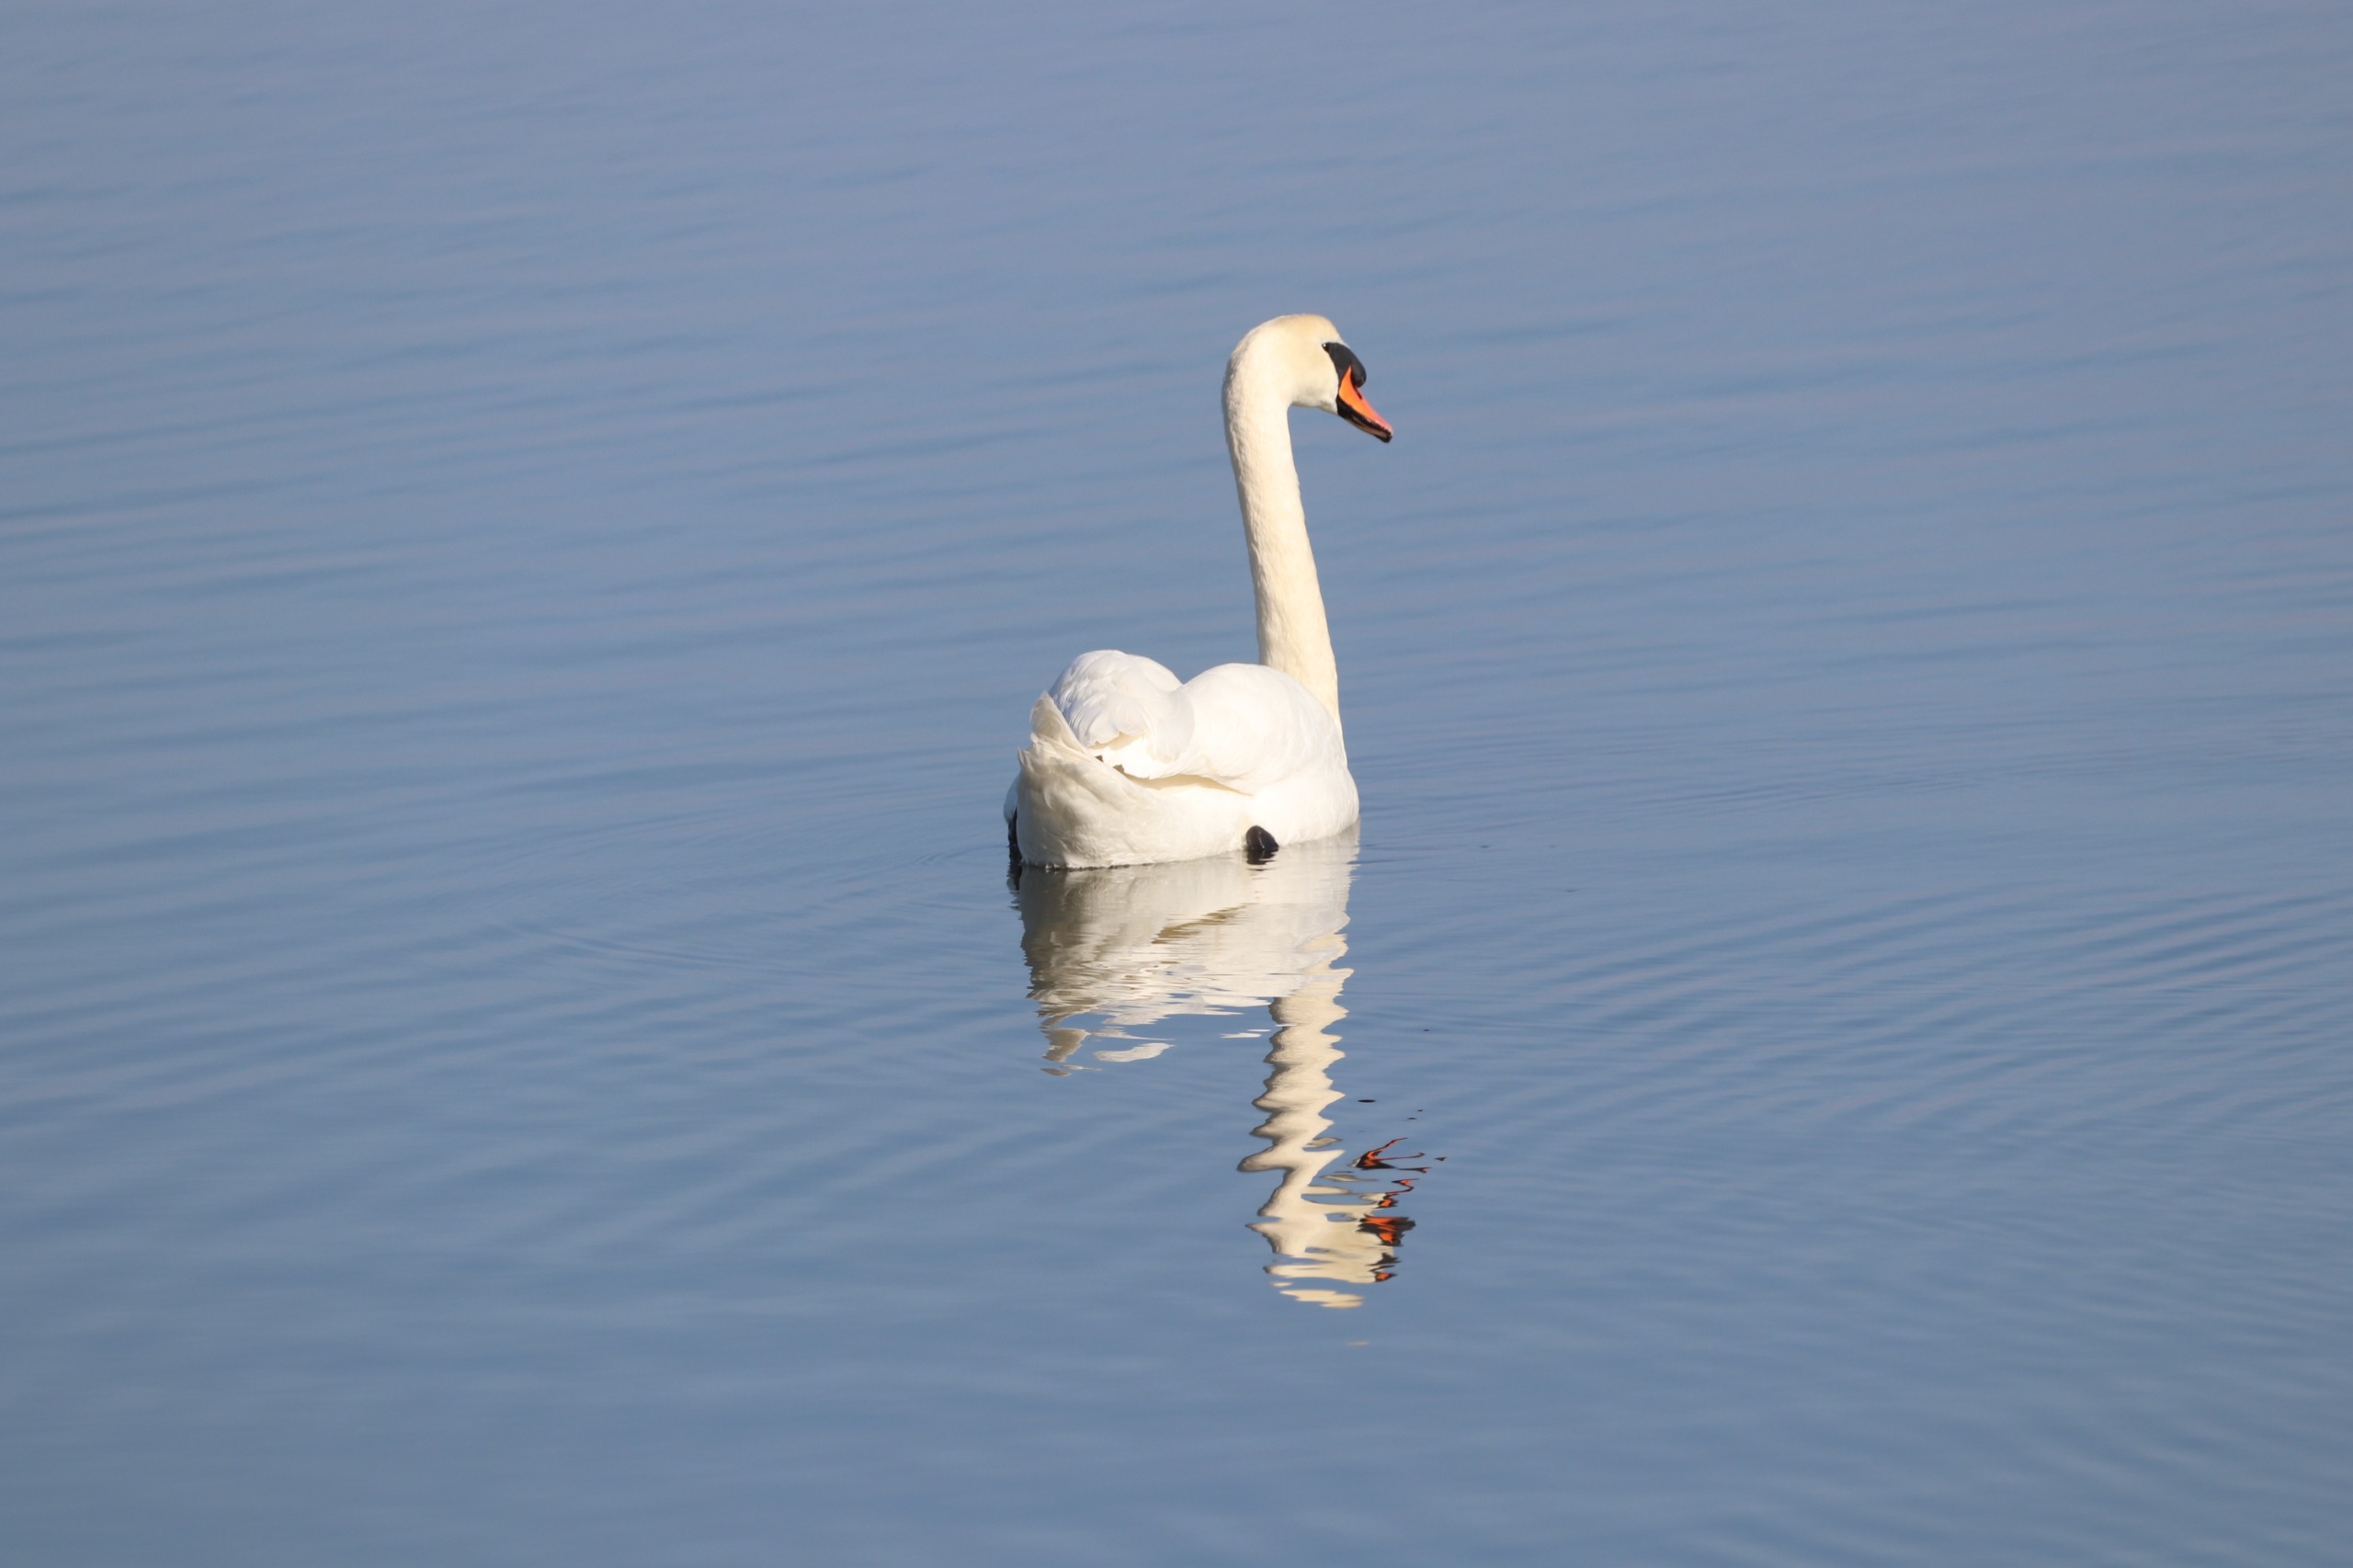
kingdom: Animalia
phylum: Chordata
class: Aves
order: Anseriformes
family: Anatidae
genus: Cygnus
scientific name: Cygnus olor
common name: Knopsvane
